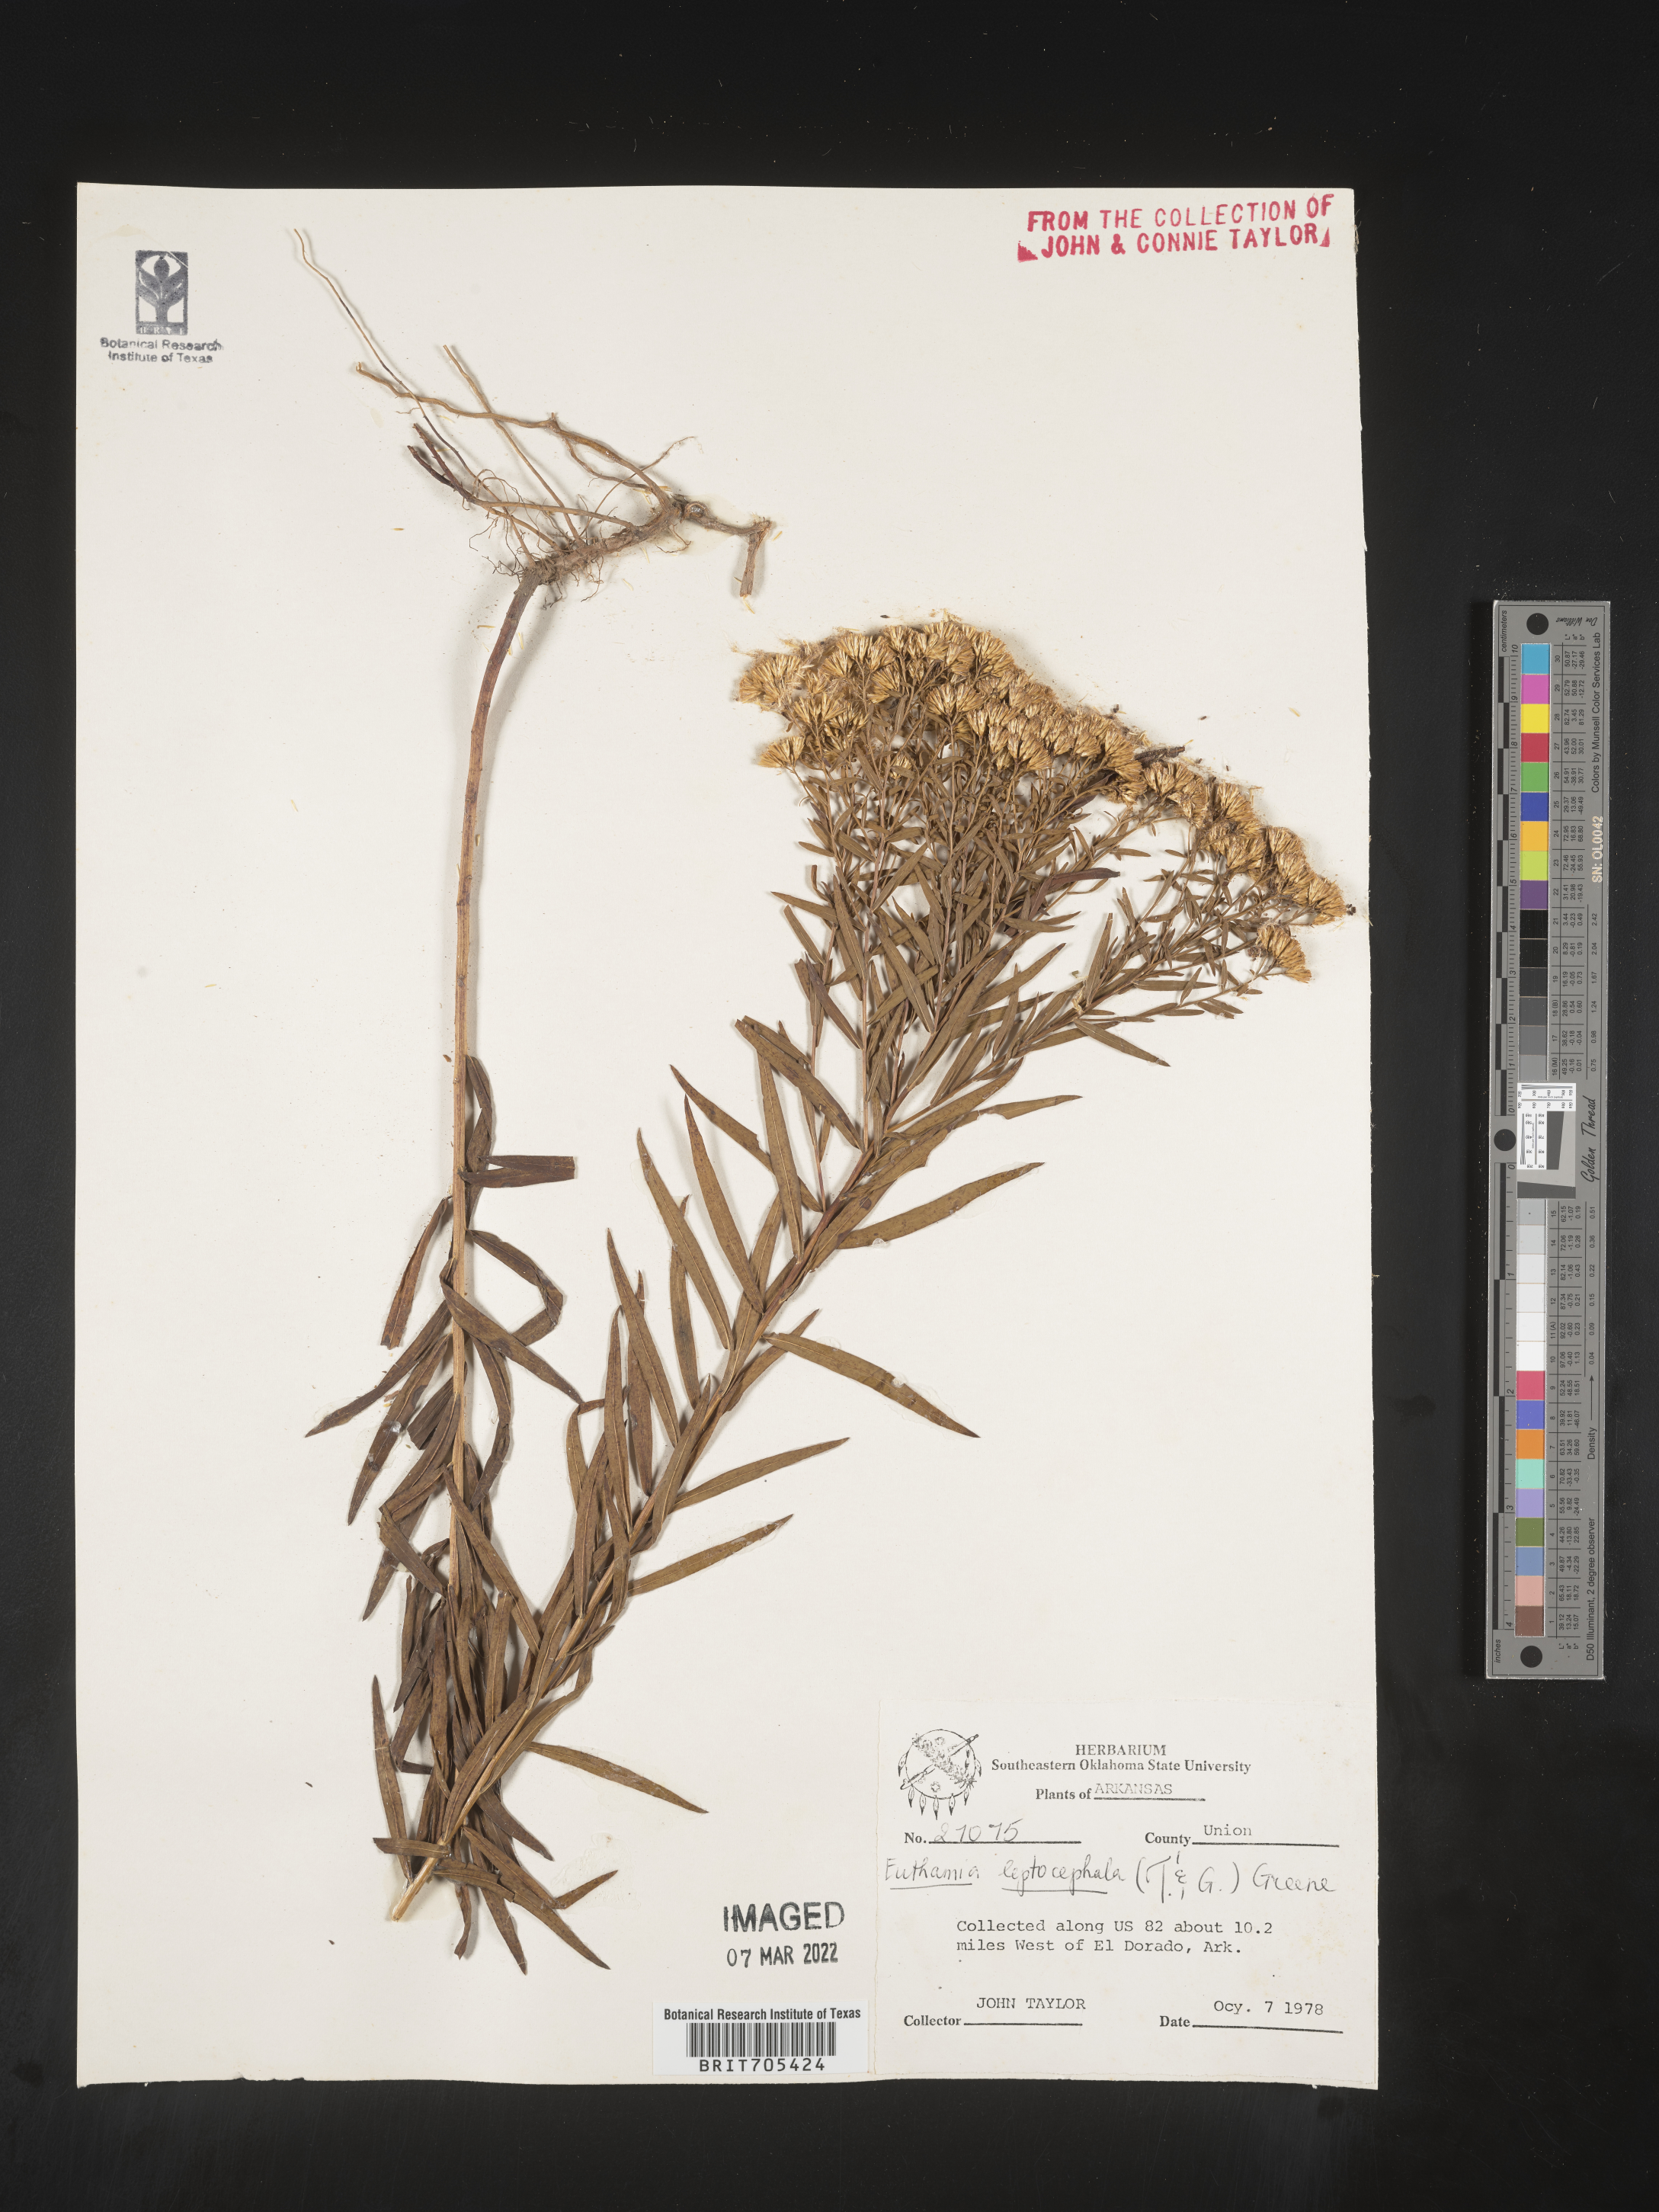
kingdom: Plantae
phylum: Tracheophyta
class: Magnoliopsida
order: Asterales
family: Asteraceae
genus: Euthamia
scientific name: Euthamia leptocephala
